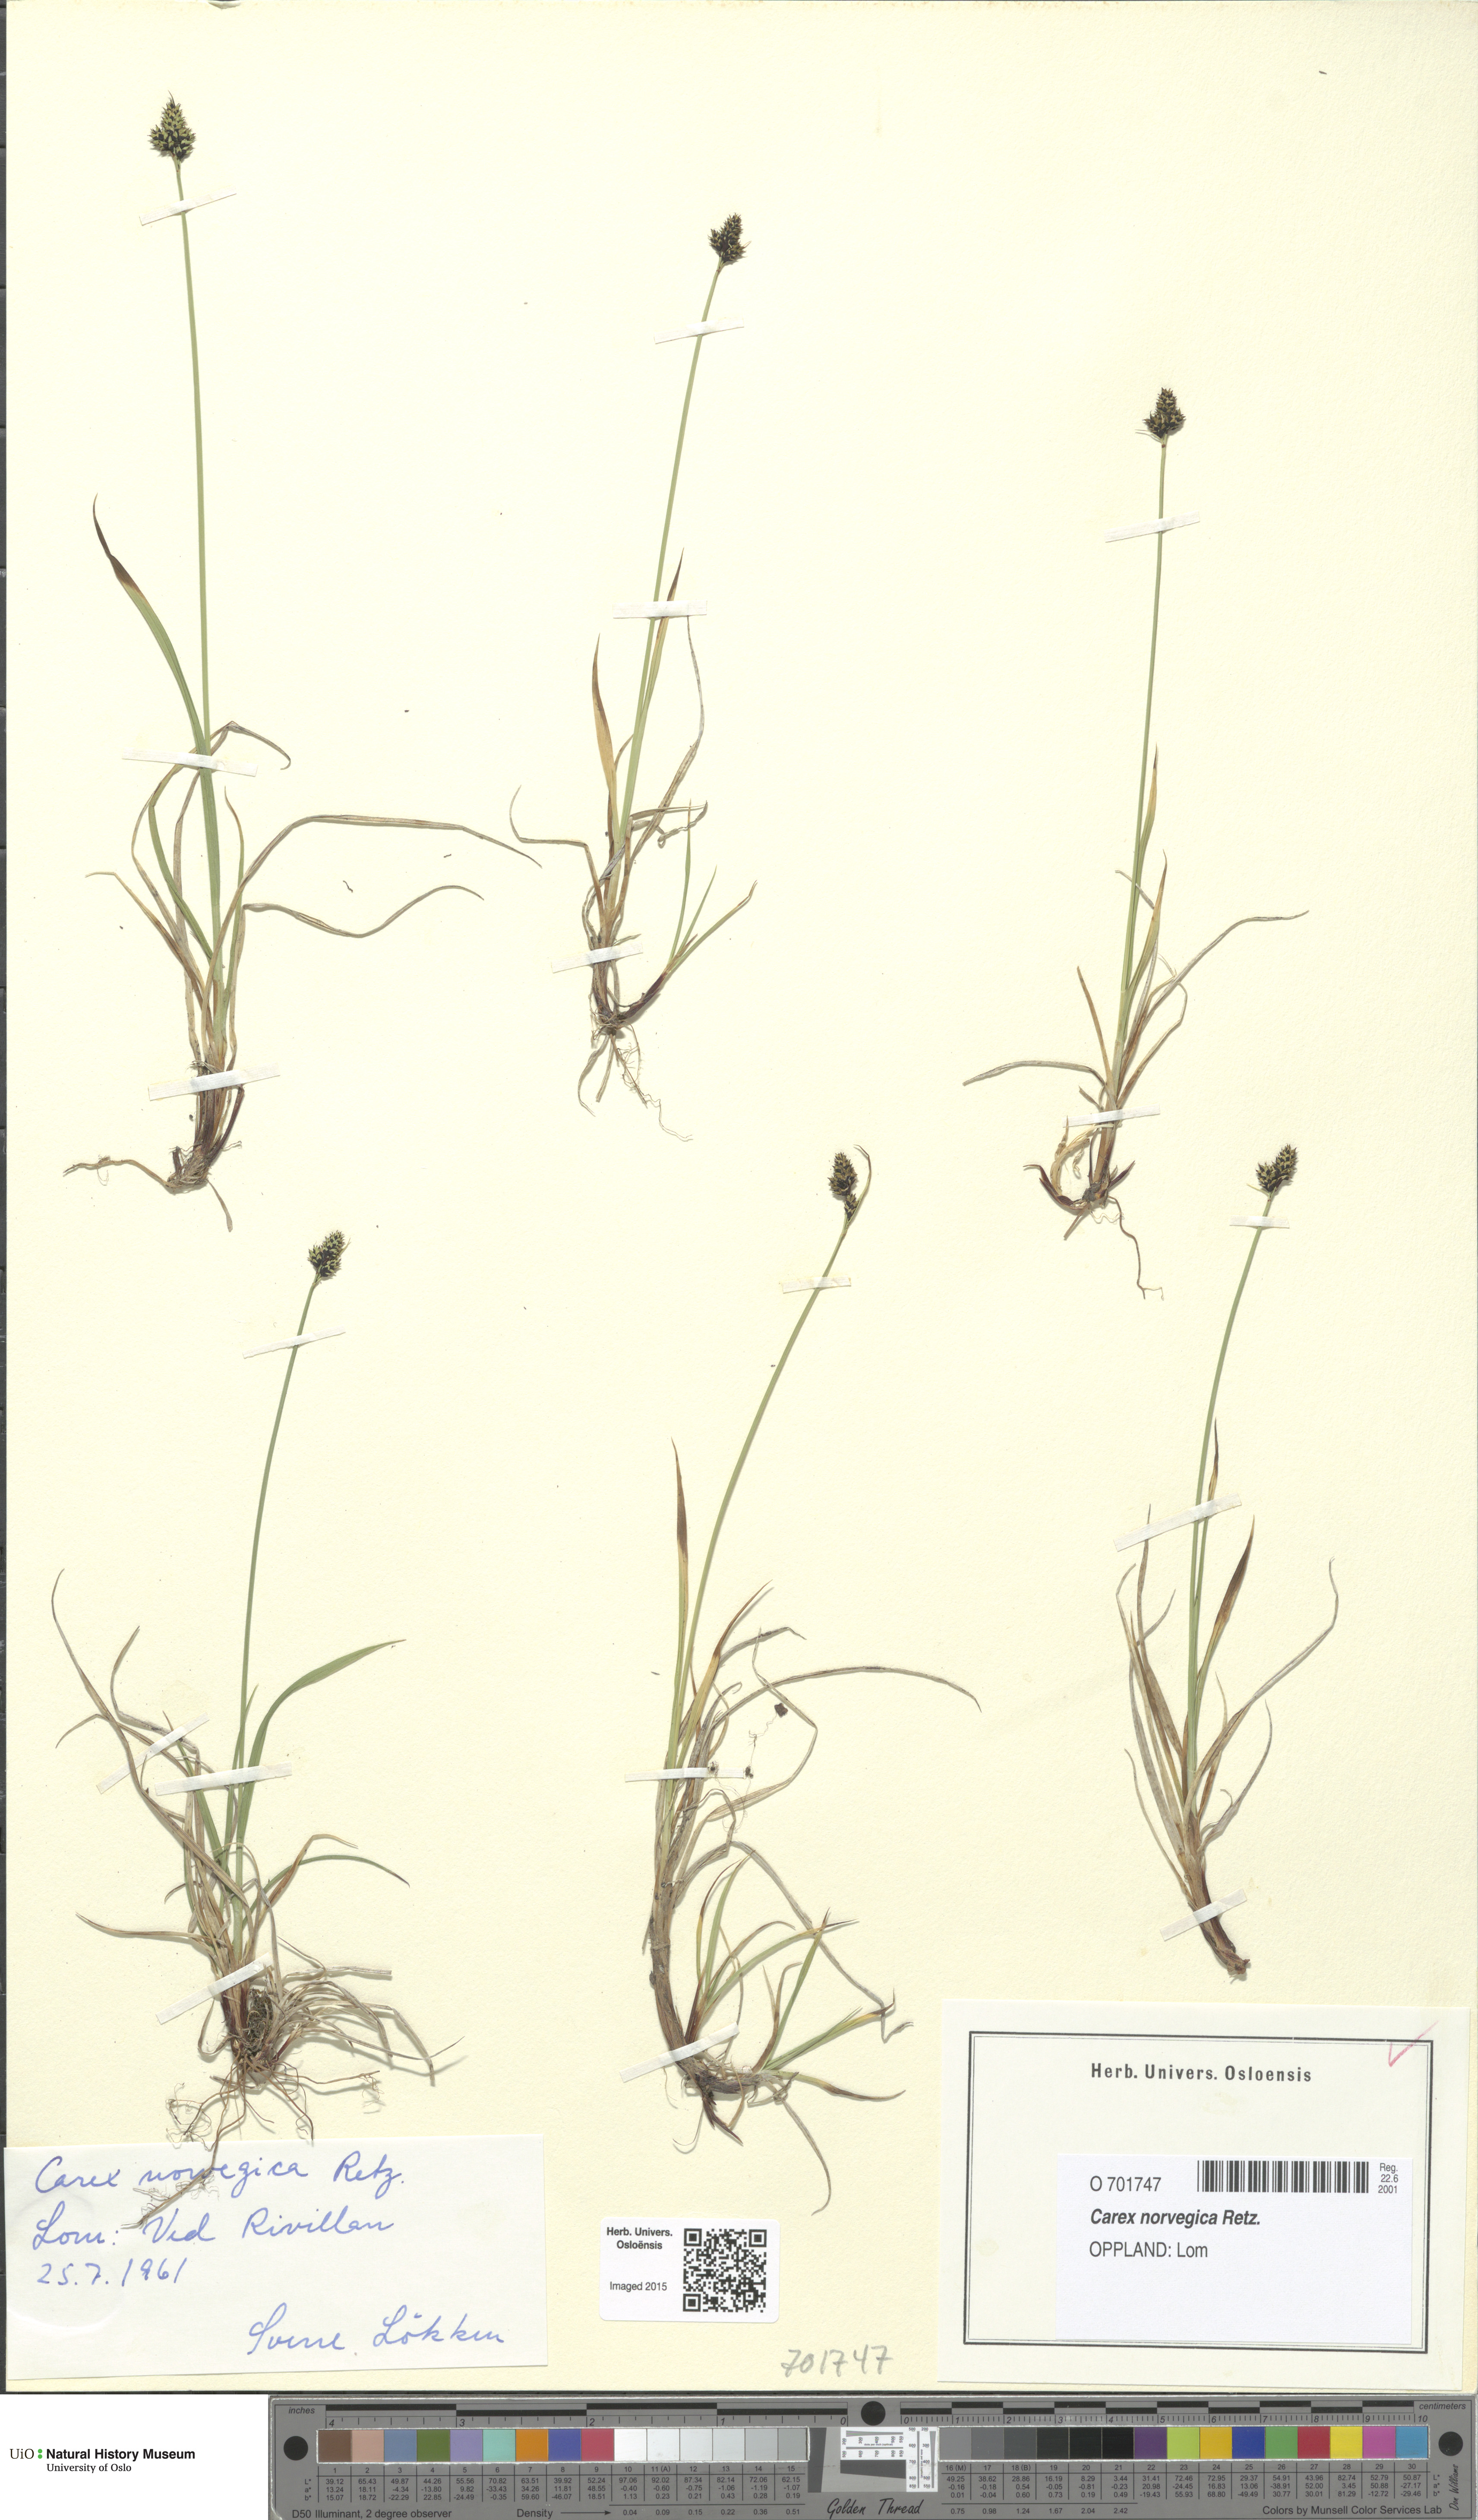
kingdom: Plantae
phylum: Tracheophyta
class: Liliopsida
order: Poales
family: Cyperaceae
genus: Carex
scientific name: Carex norvegica
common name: Close-headed alpine-sedge
